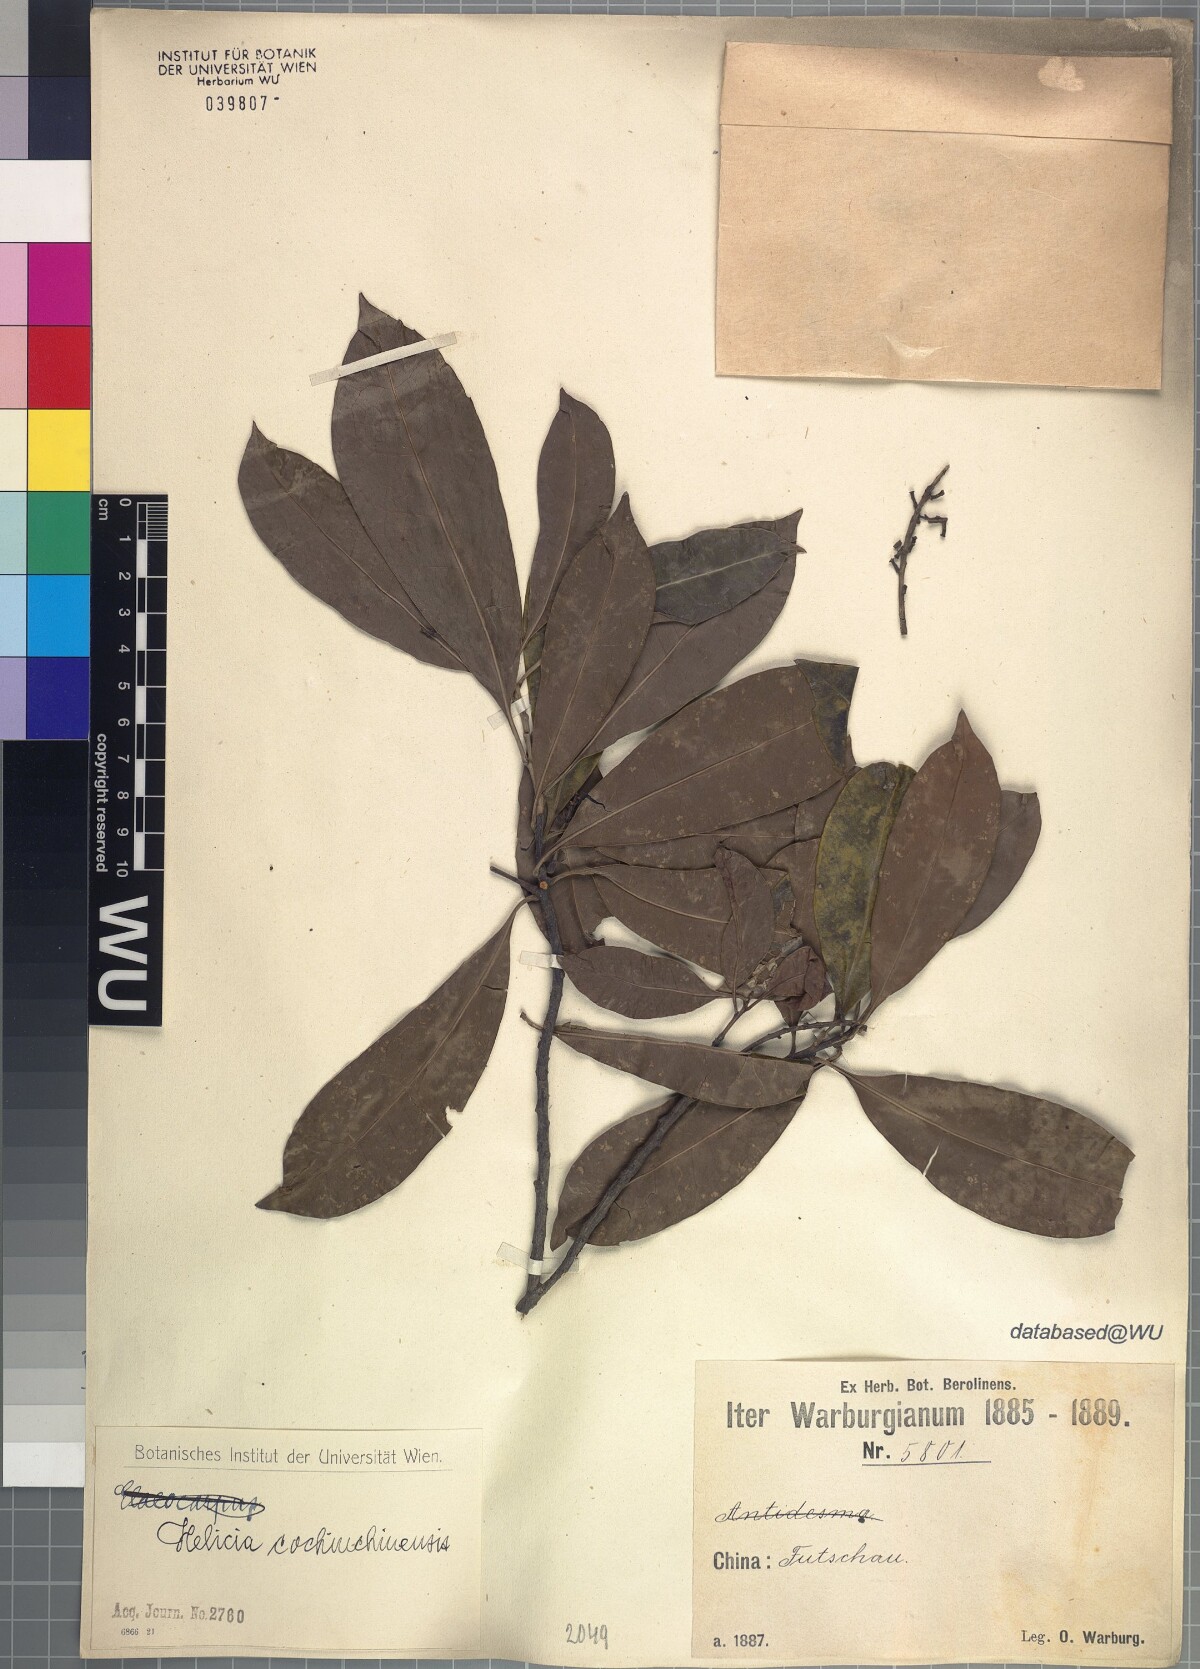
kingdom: Plantae
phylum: Tracheophyta
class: Magnoliopsida
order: Proteales
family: Proteaceae
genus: Helicia
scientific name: Helicia cochinchinensis
